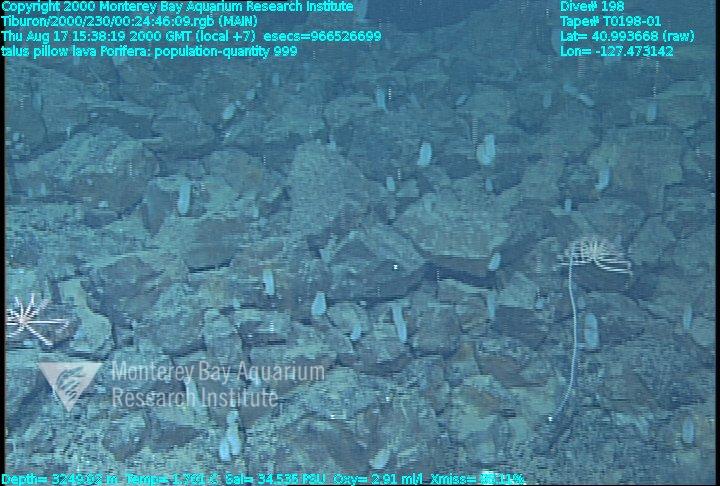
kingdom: Animalia
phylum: Porifera
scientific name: Porifera
